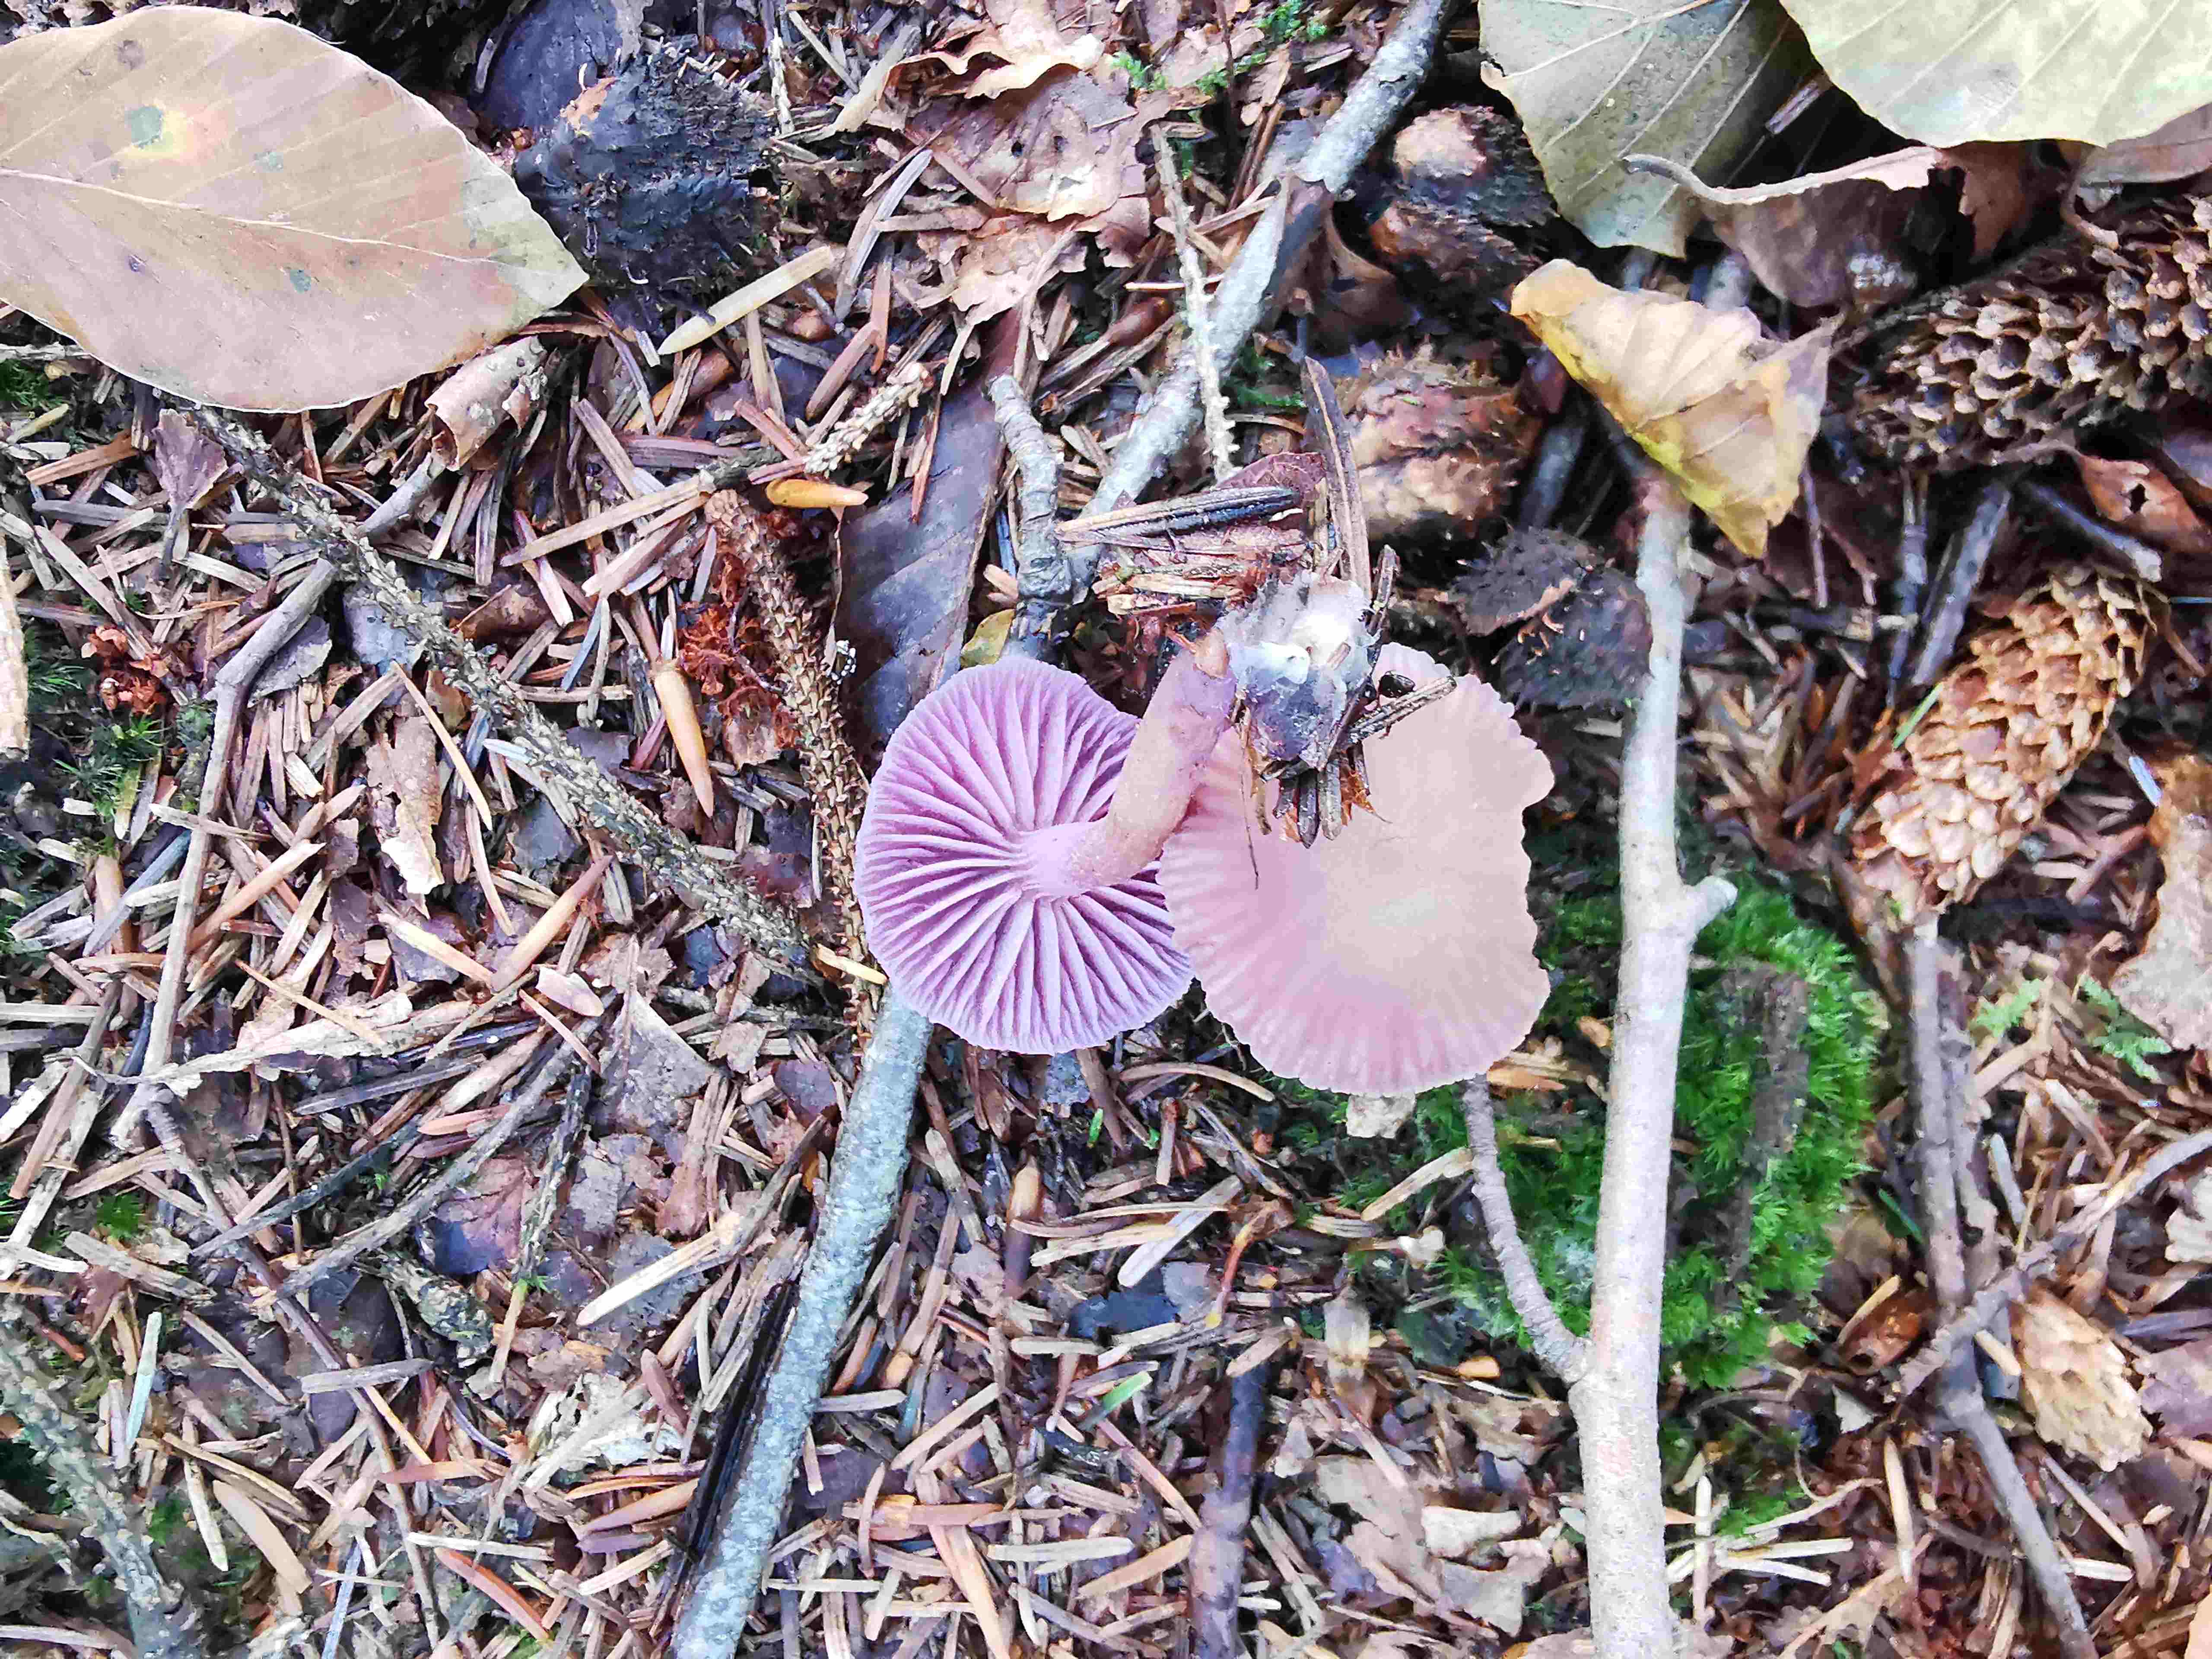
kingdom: Fungi
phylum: Basidiomycota
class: Agaricomycetes
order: Agaricales
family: Hydnangiaceae
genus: Laccaria
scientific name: Laccaria amethystina
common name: violet ametysthat
